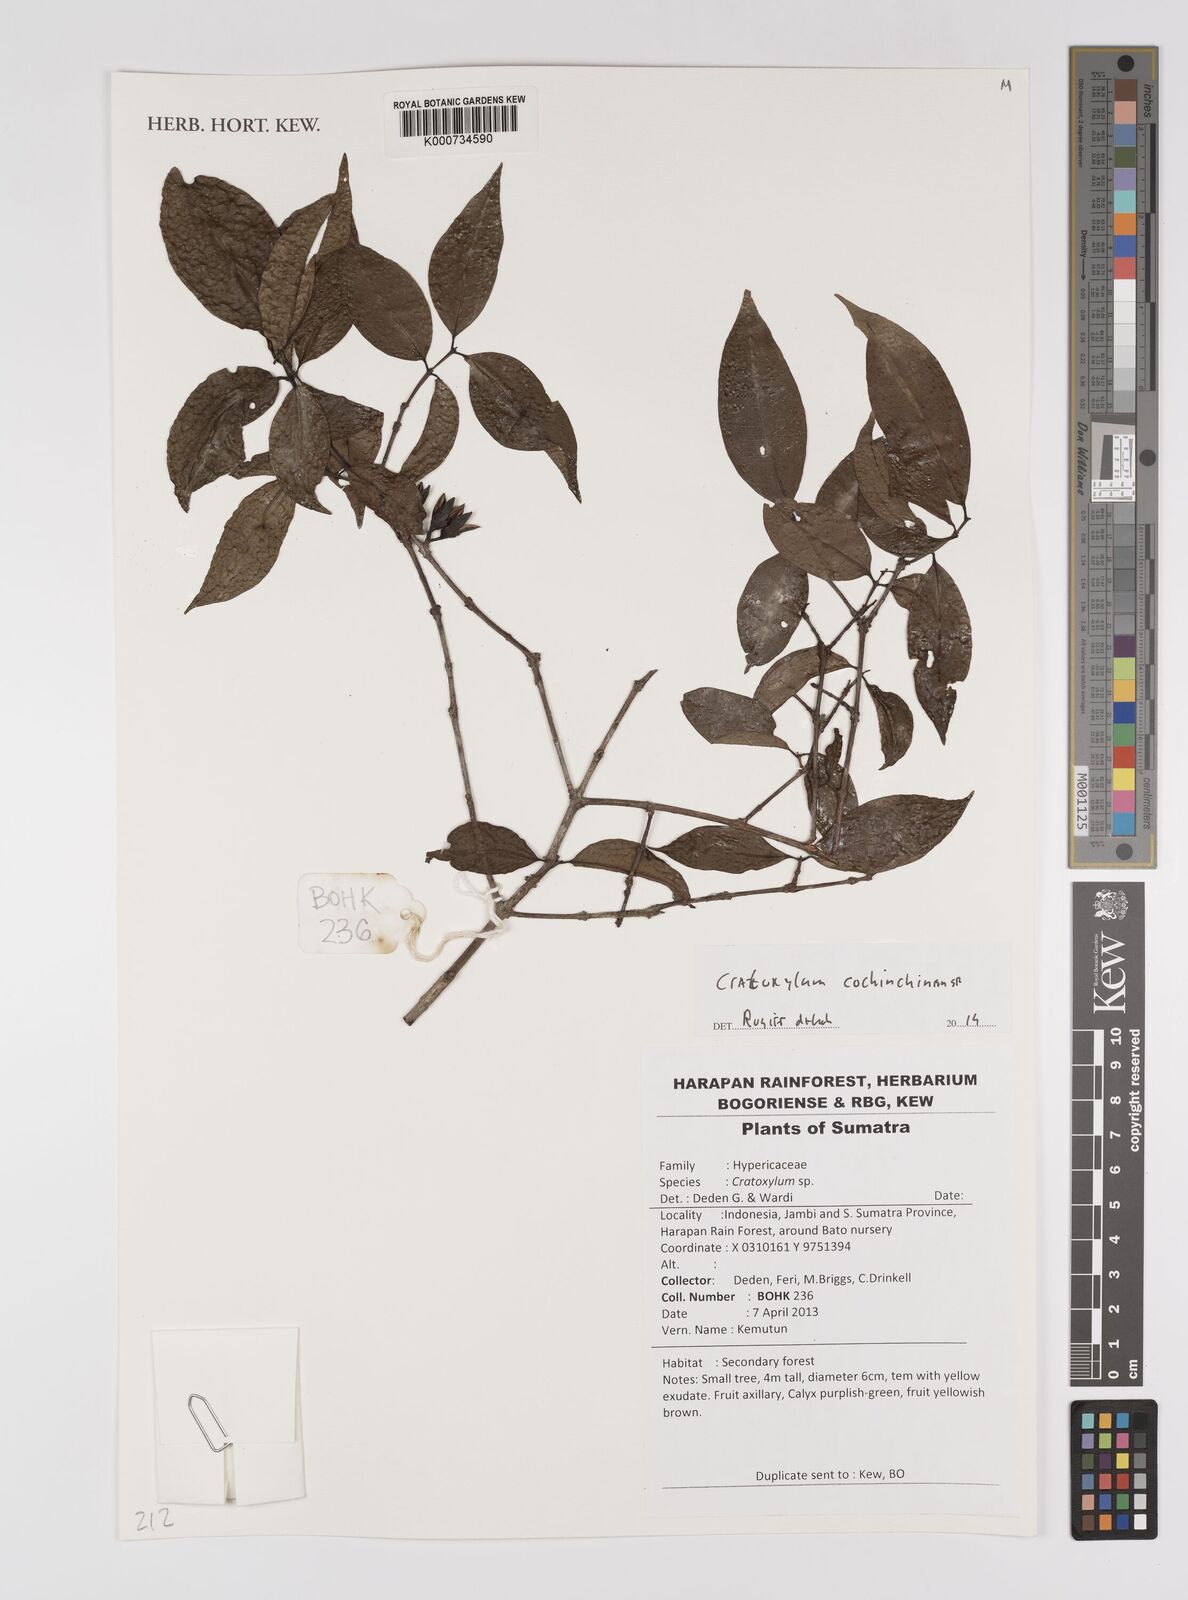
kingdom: Plantae
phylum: Tracheophyta
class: Magnoliopsida
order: Malpighiales
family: Hypericaceae
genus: Cratoxylum
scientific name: Cratoxylum cochinchinense
